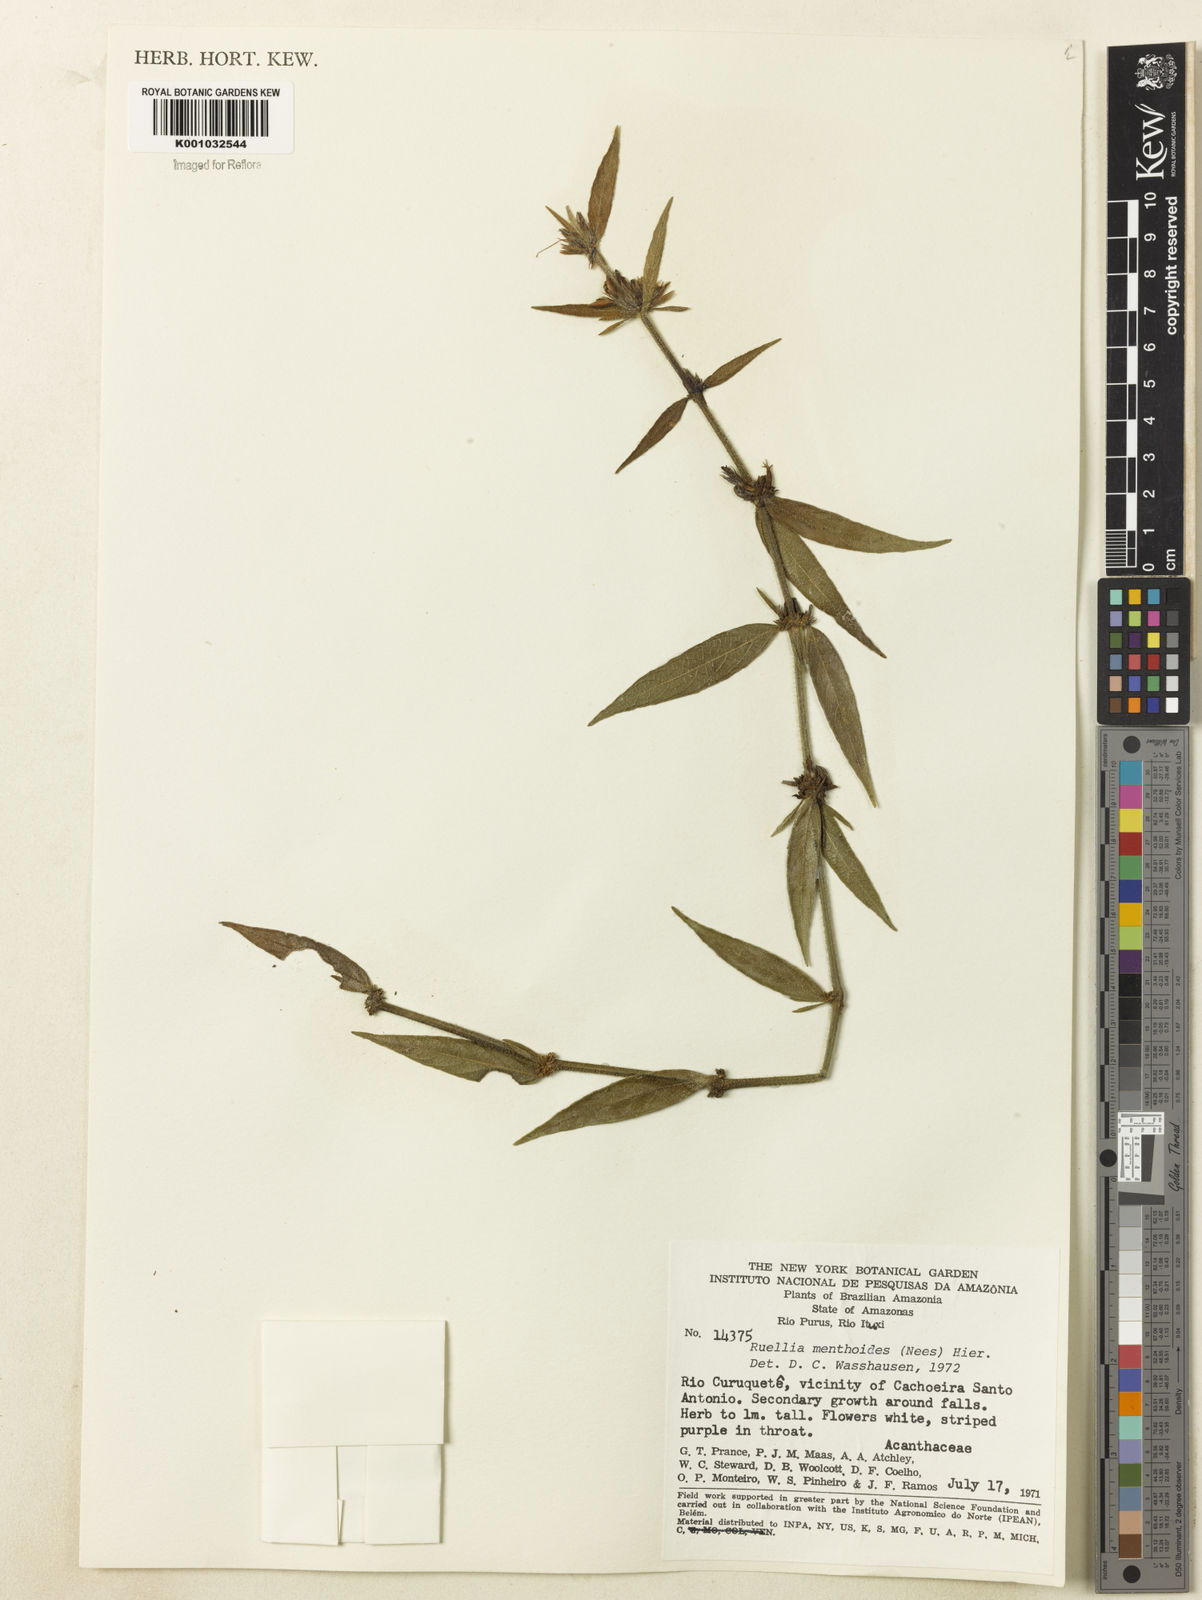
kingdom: Plantae
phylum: Tracheophyta
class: Magnoliopsida
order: Lamiales
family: Acanthaceae
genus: Ruellia
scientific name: Ruellia menthoides
